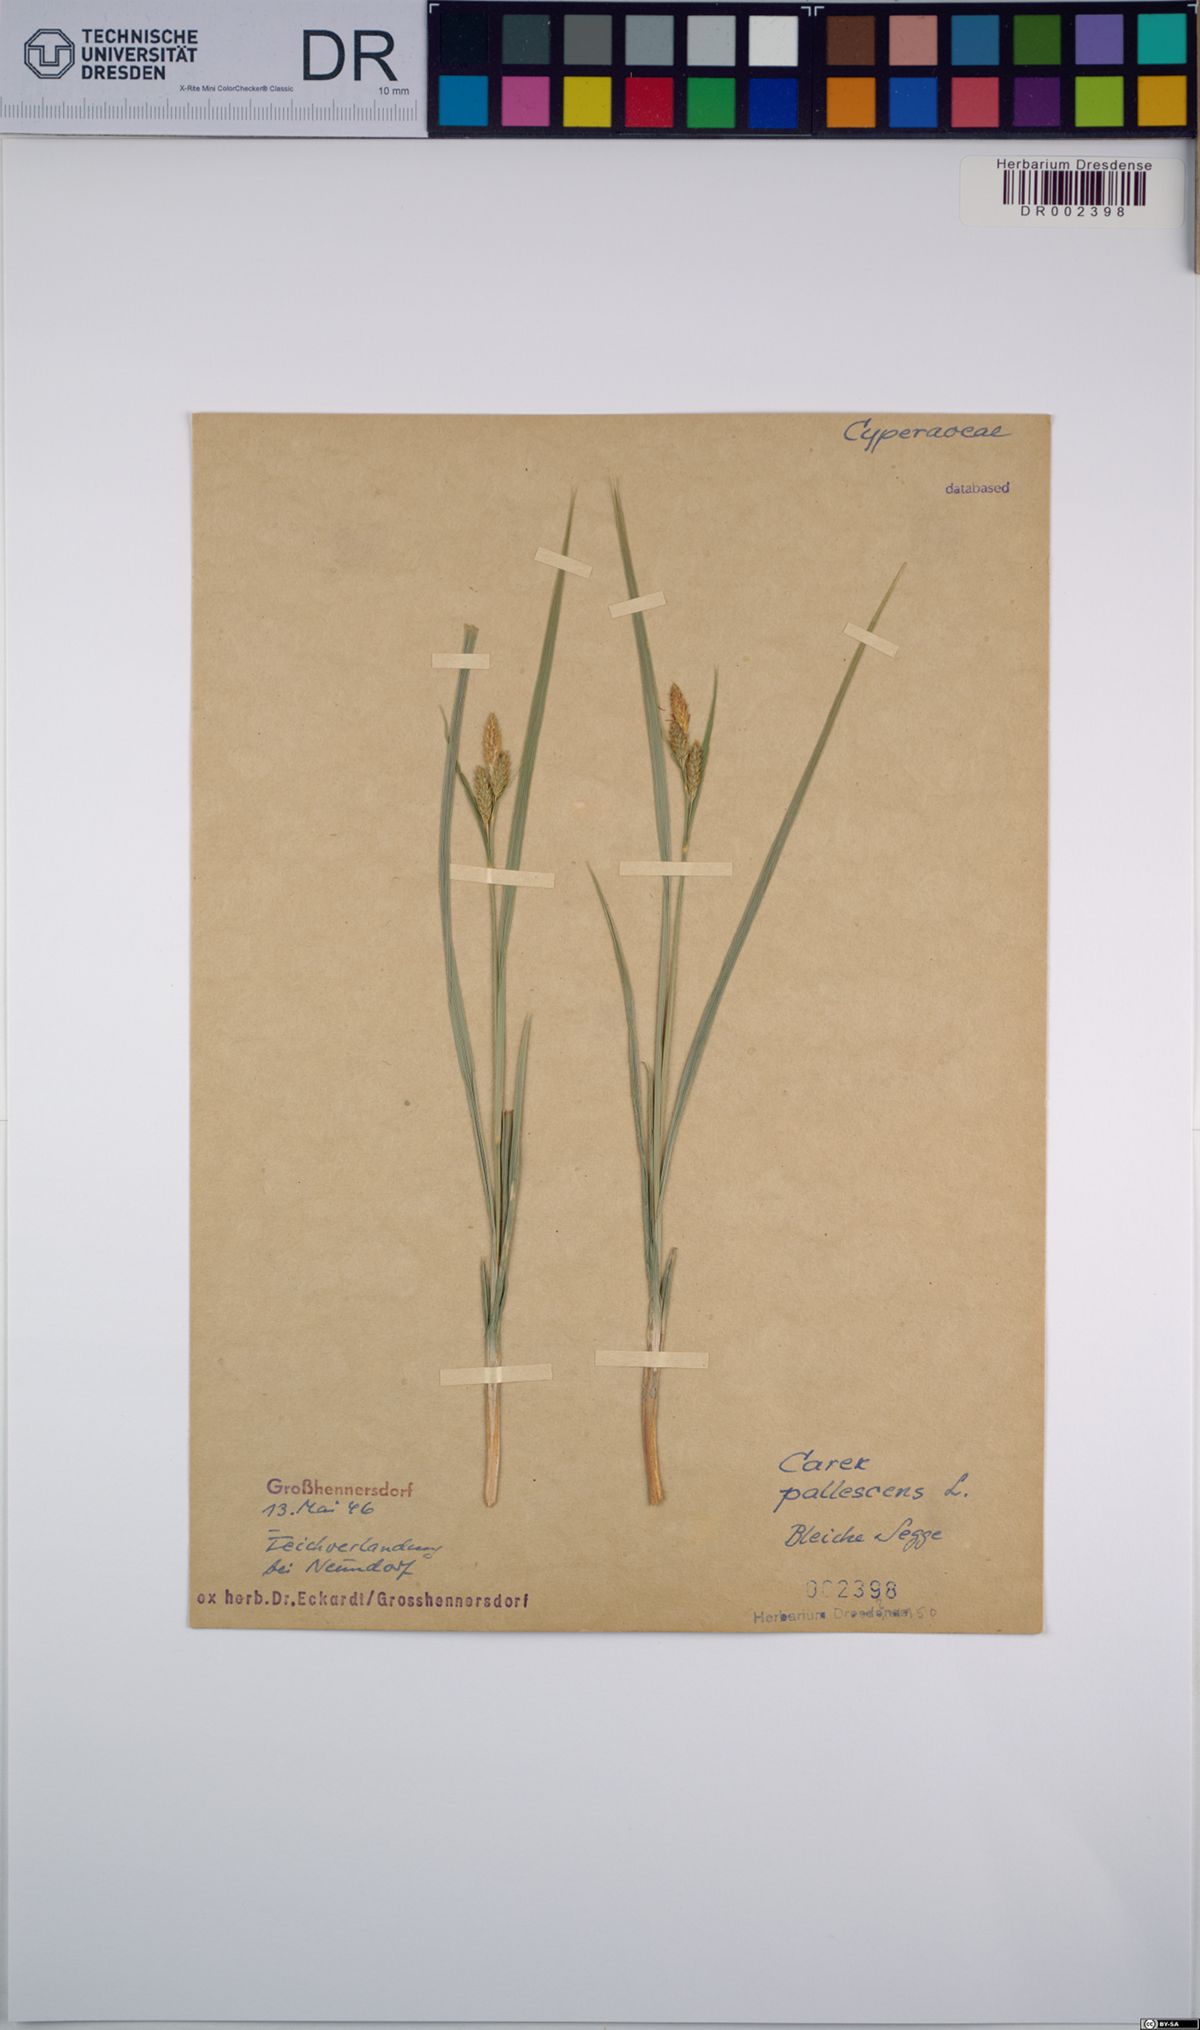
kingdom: Plantae
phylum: Tracheophyta
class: Liliopsida
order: Poales
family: Cyperaceae
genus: Carex
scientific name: Carex pallescens
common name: Pale sedge
